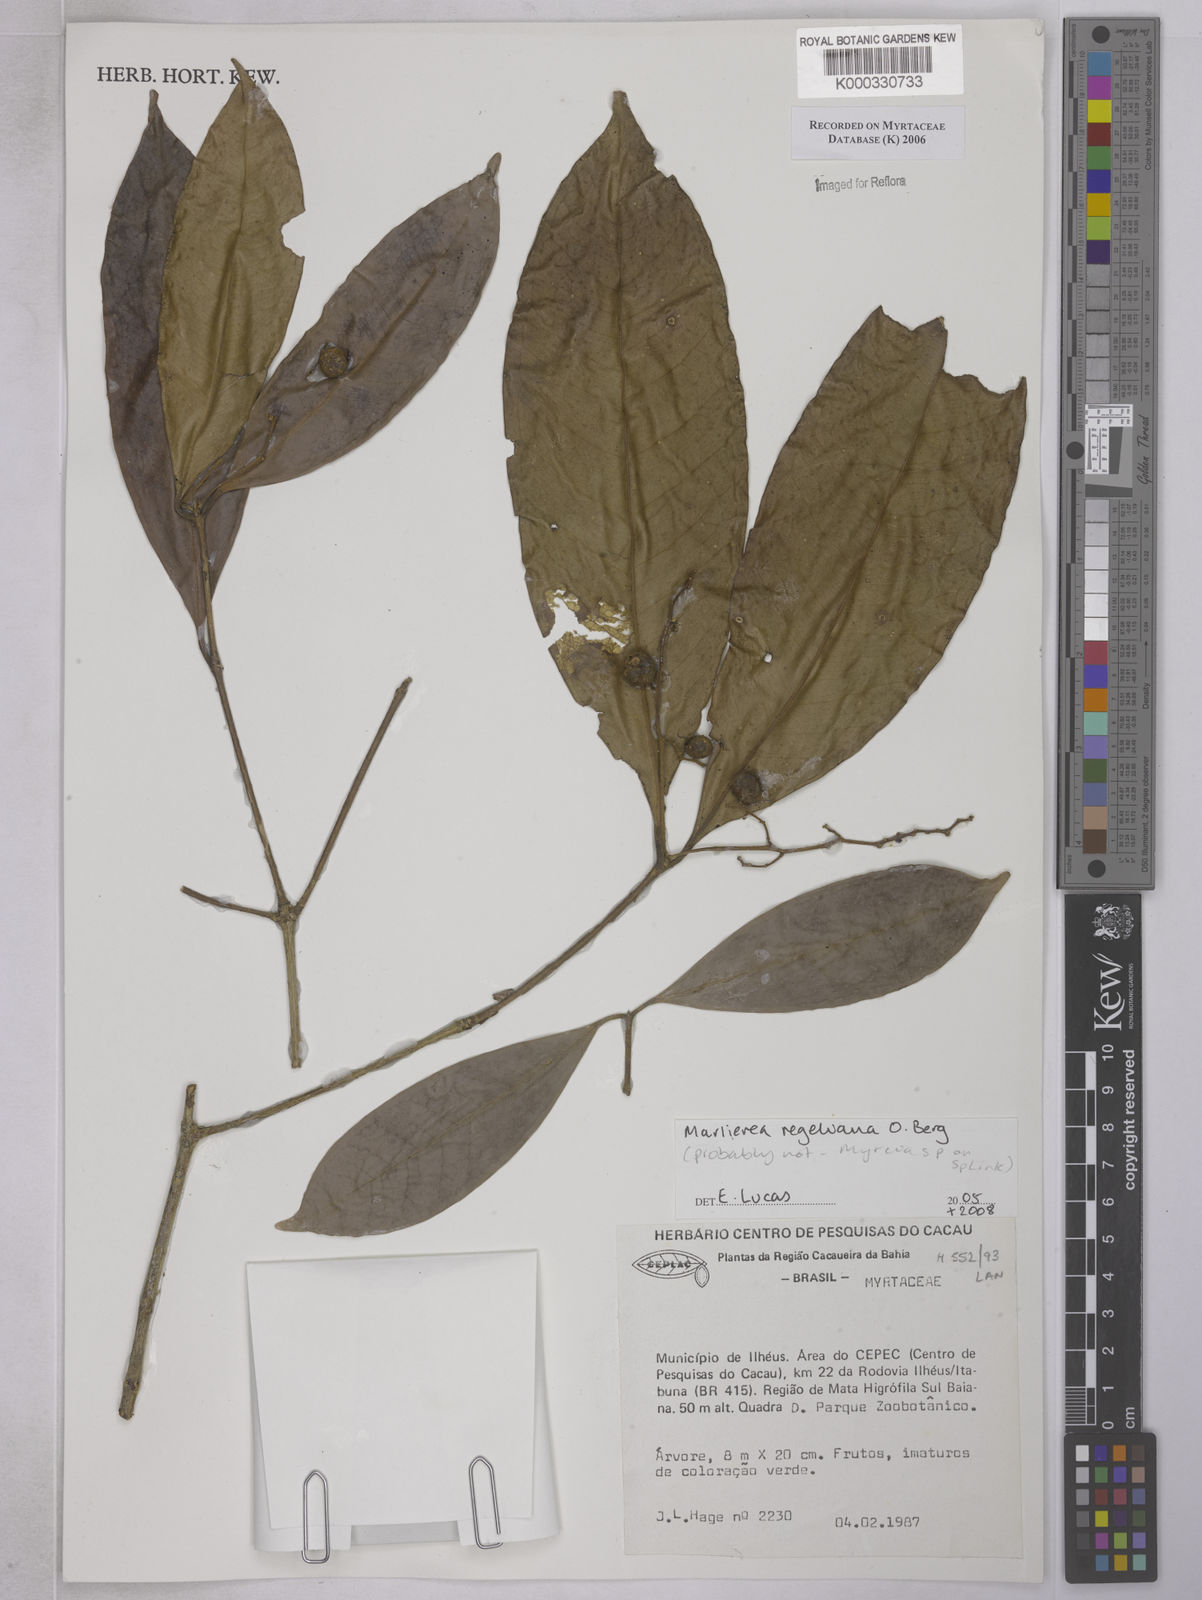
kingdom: Plantae
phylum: Tracheophyta
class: Magnoliopsida
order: Myrtales
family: Myrtaceae
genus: Marlierea
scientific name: Marlierea
